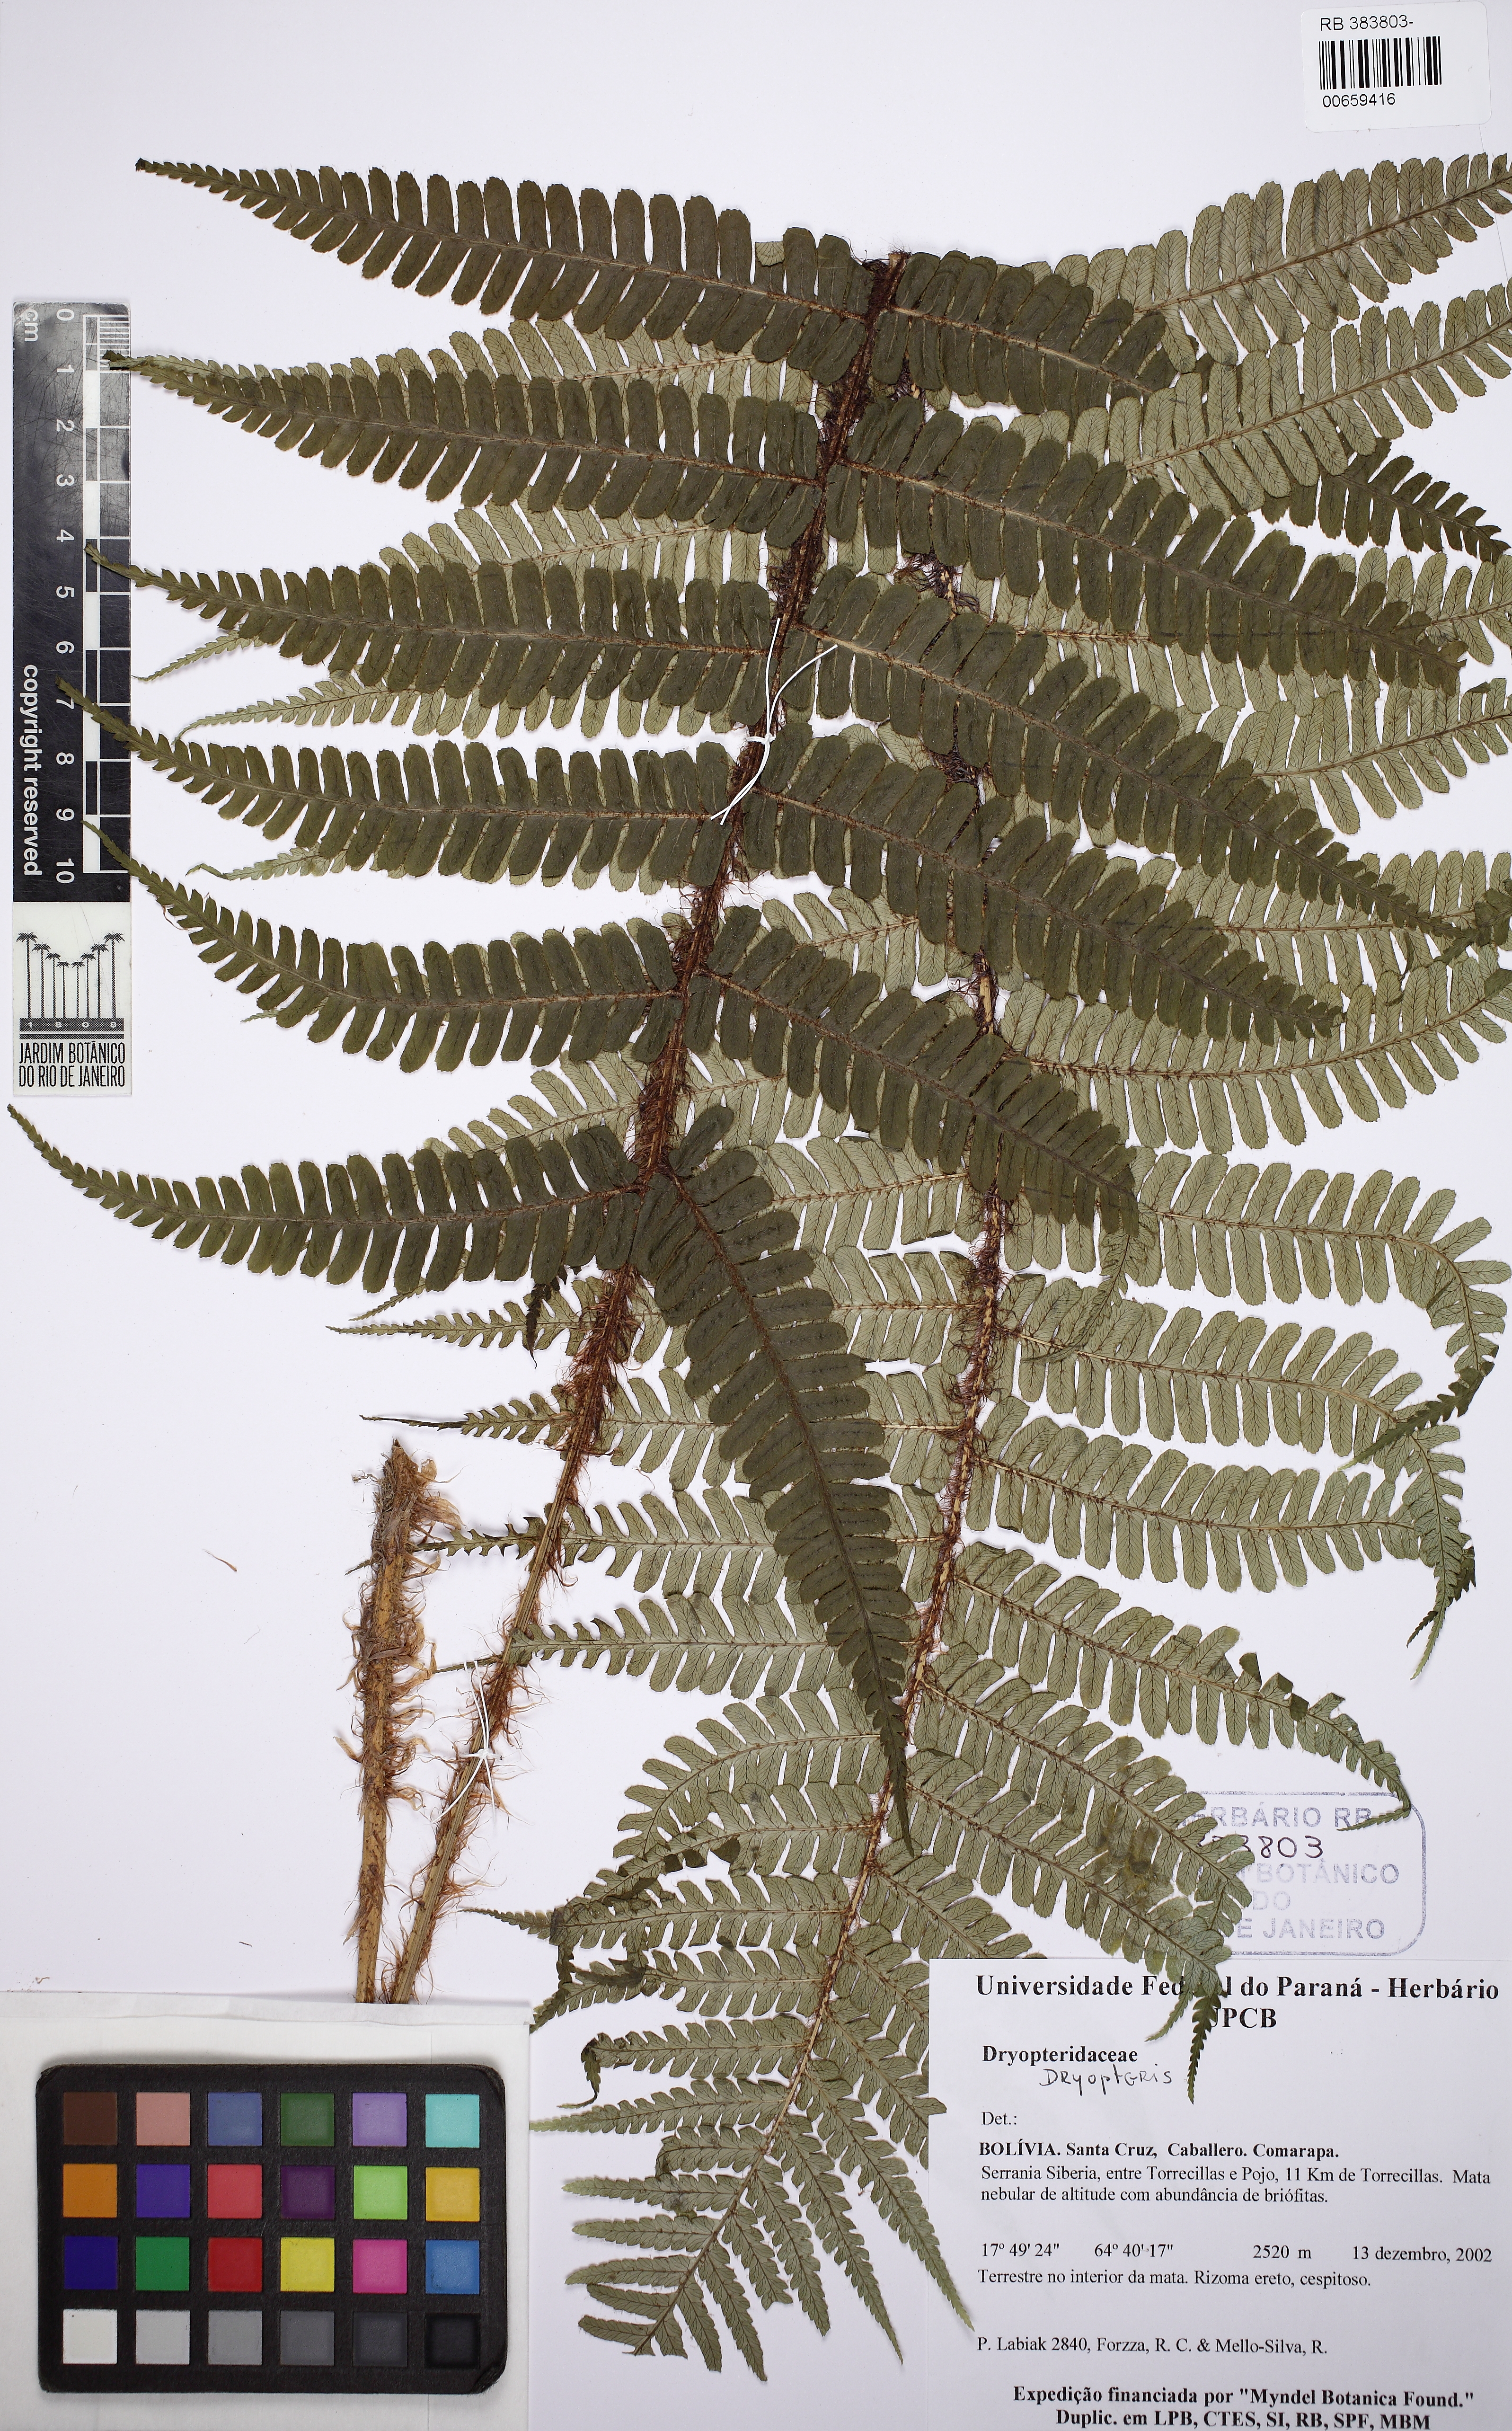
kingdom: Plantae
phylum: Tracheophyta
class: Polypodiopsida
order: Polypodiales
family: Dryopteridaceae
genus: Dryopteris
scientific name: Dryopteris wallichiana
